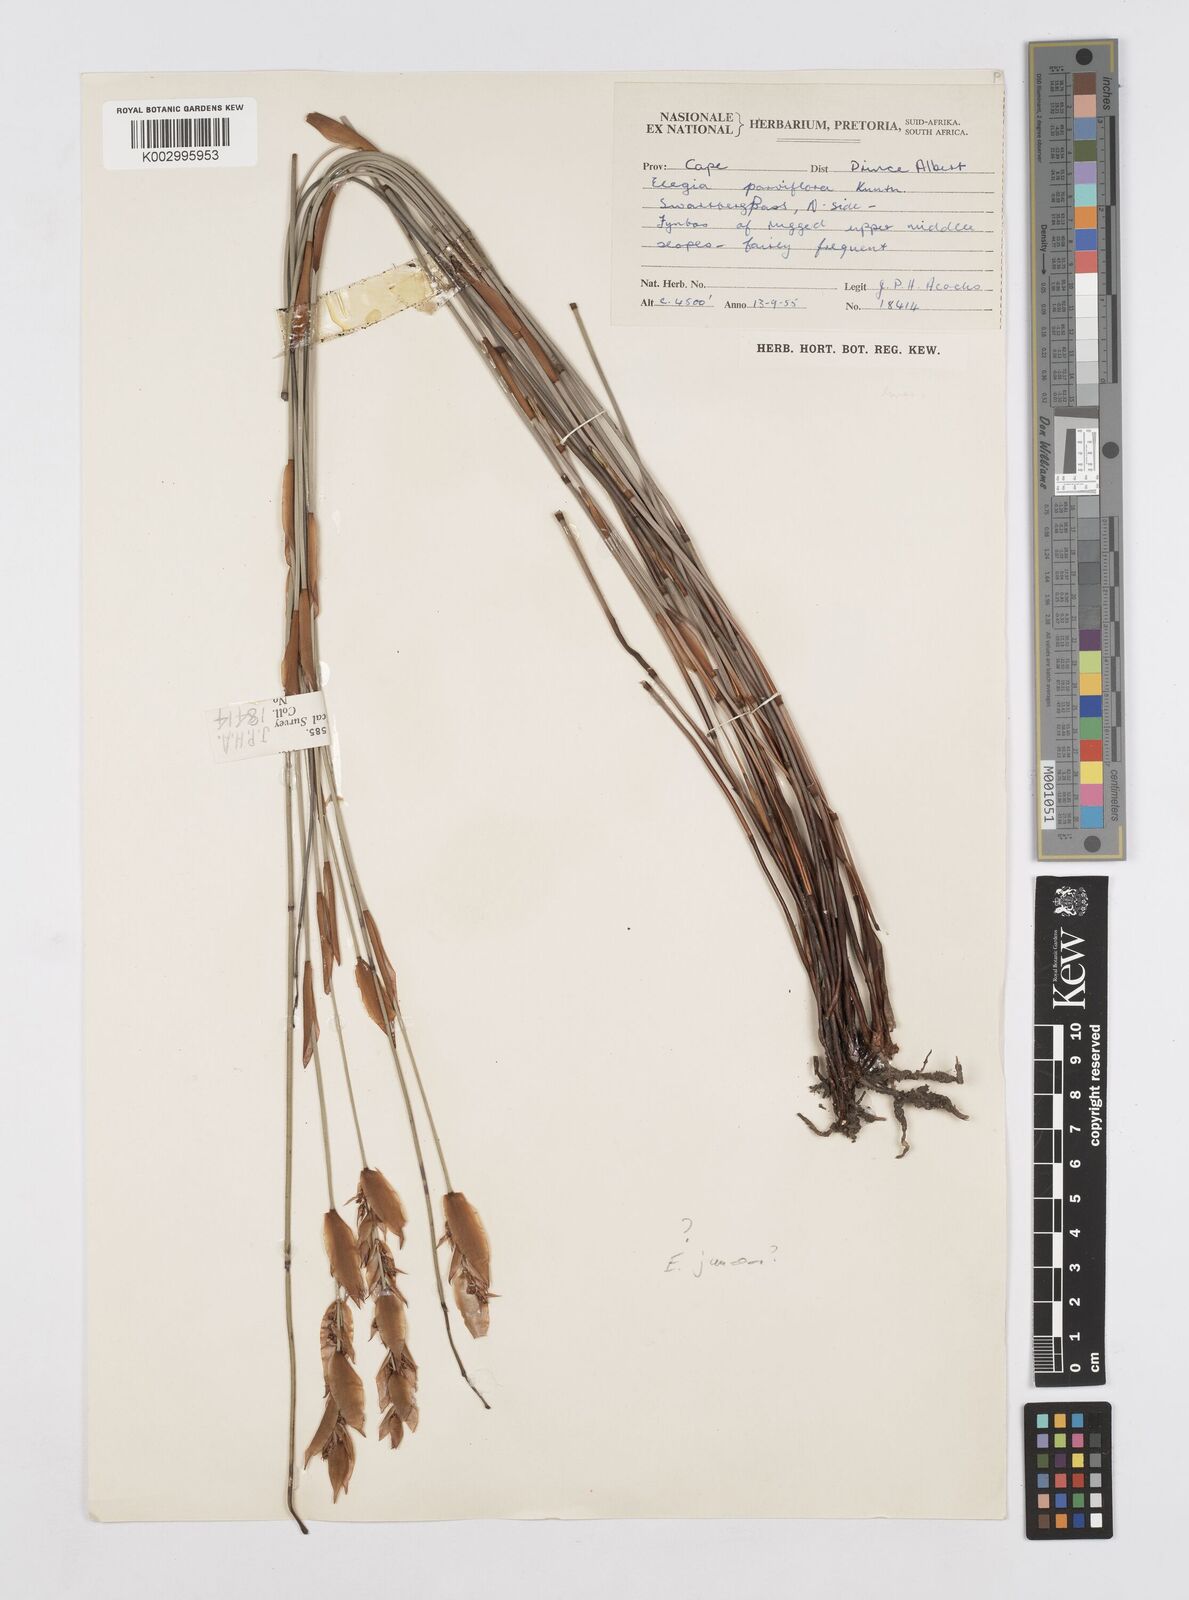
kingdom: Plantae
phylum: Tracheophyta
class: Liliopsida
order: Poales
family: Restionaceae
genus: Cannomois
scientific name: Cannomois parviflora
